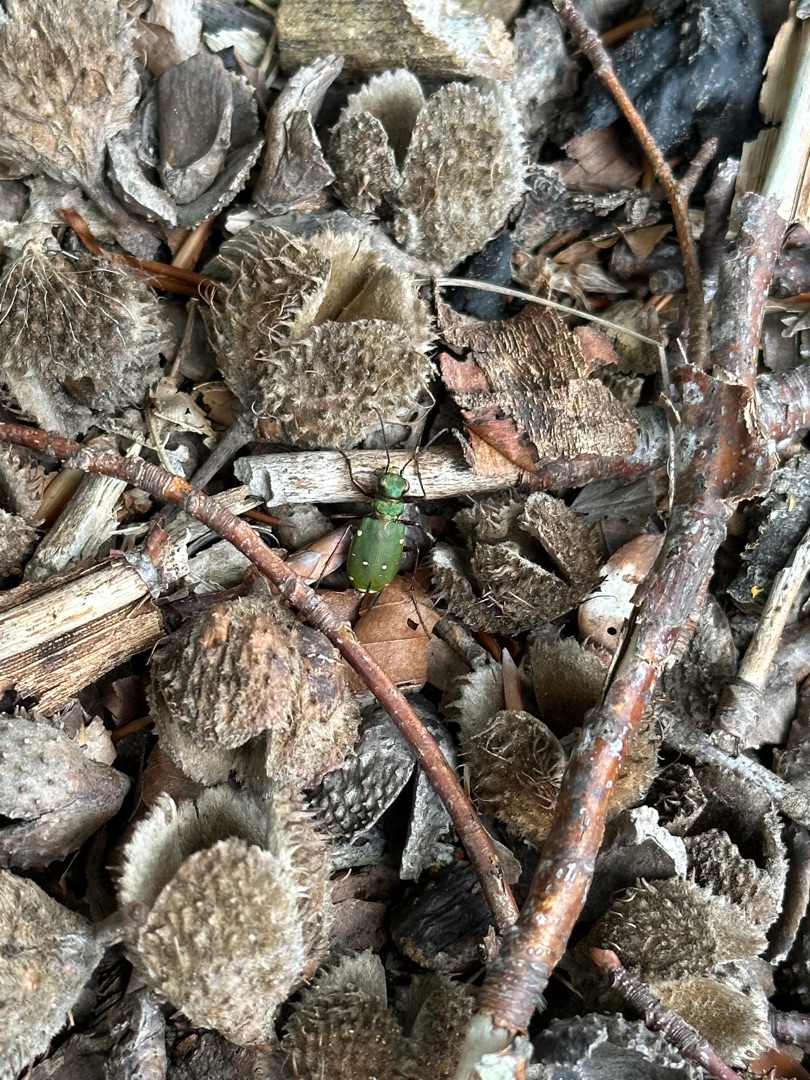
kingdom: Animalia
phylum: Arthropoda
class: Insecta
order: Coleoptera
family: Carabidae
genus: Cicindela
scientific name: Cicindela campestris
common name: Grøn sandspringer
